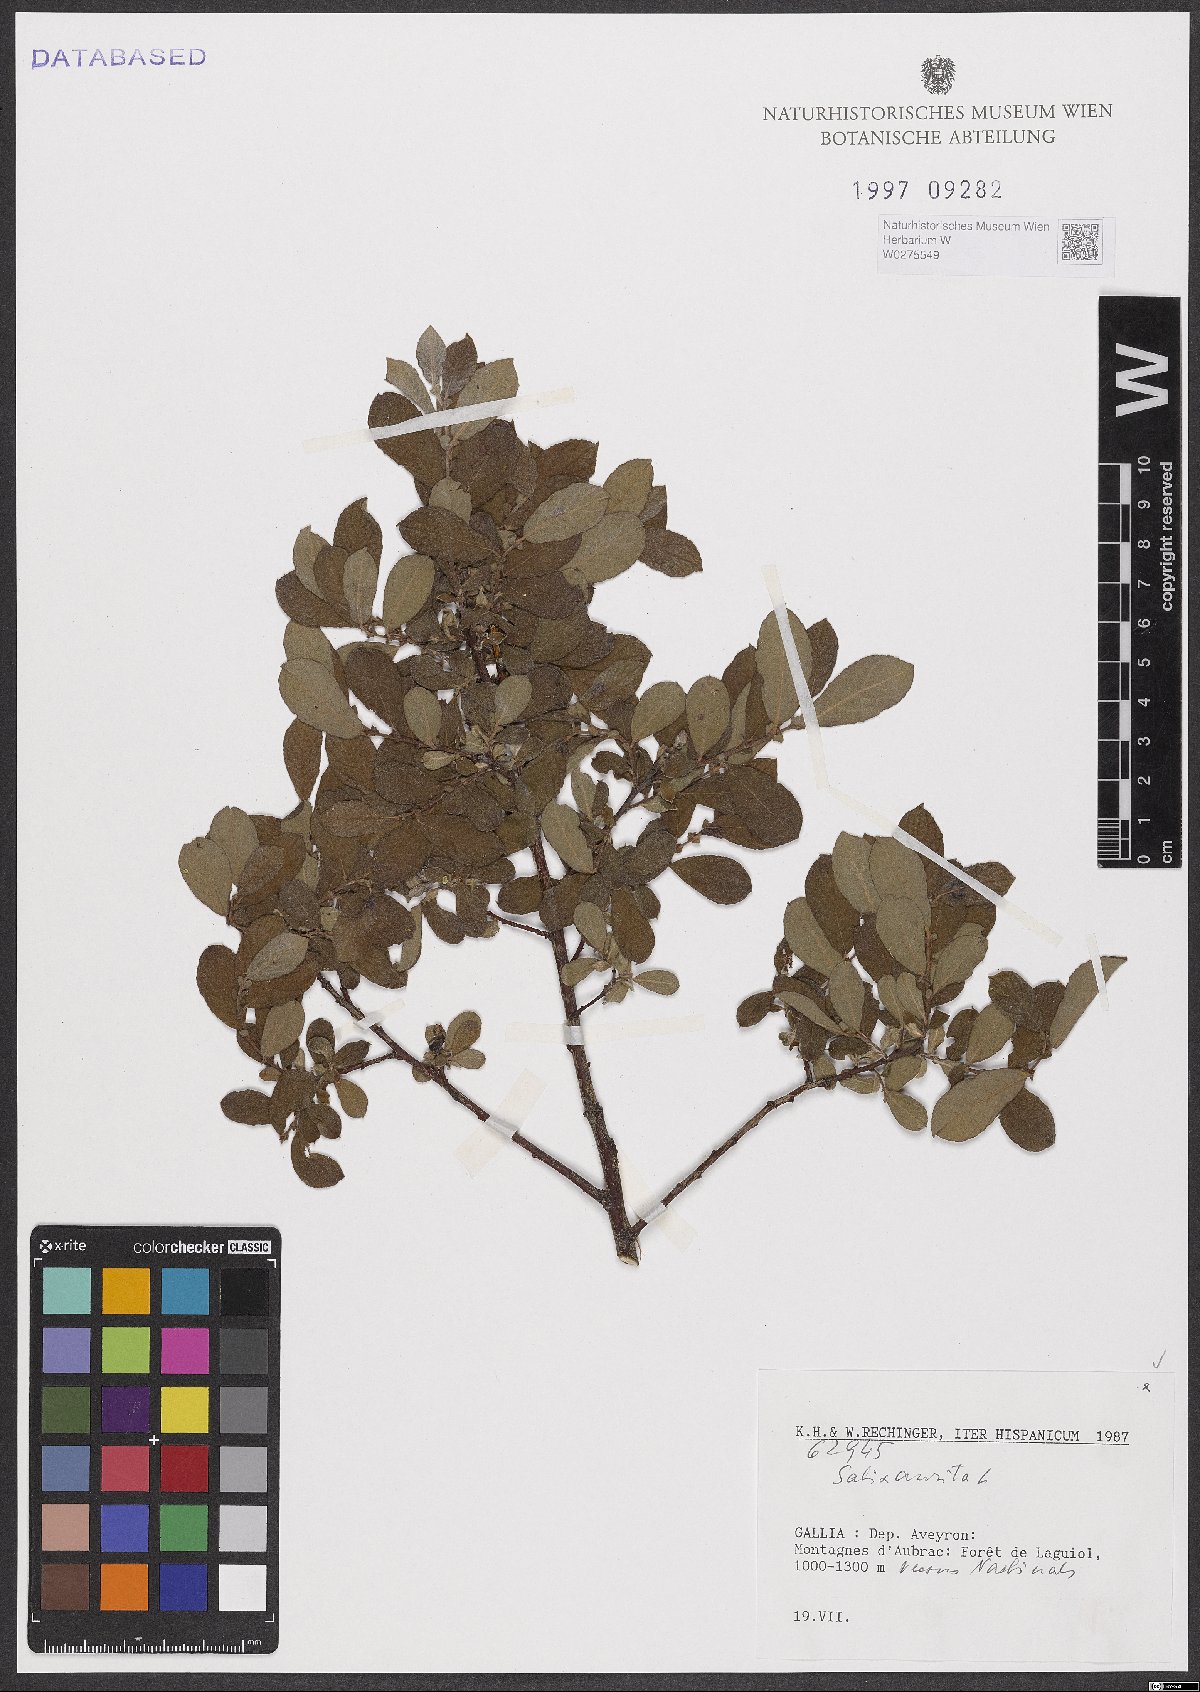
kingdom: Plantae
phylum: Tracheophyta
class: Magnoliopsida
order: Malpighiales
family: Salicaceae
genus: Salix
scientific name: Salix aurita
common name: Eared willow
